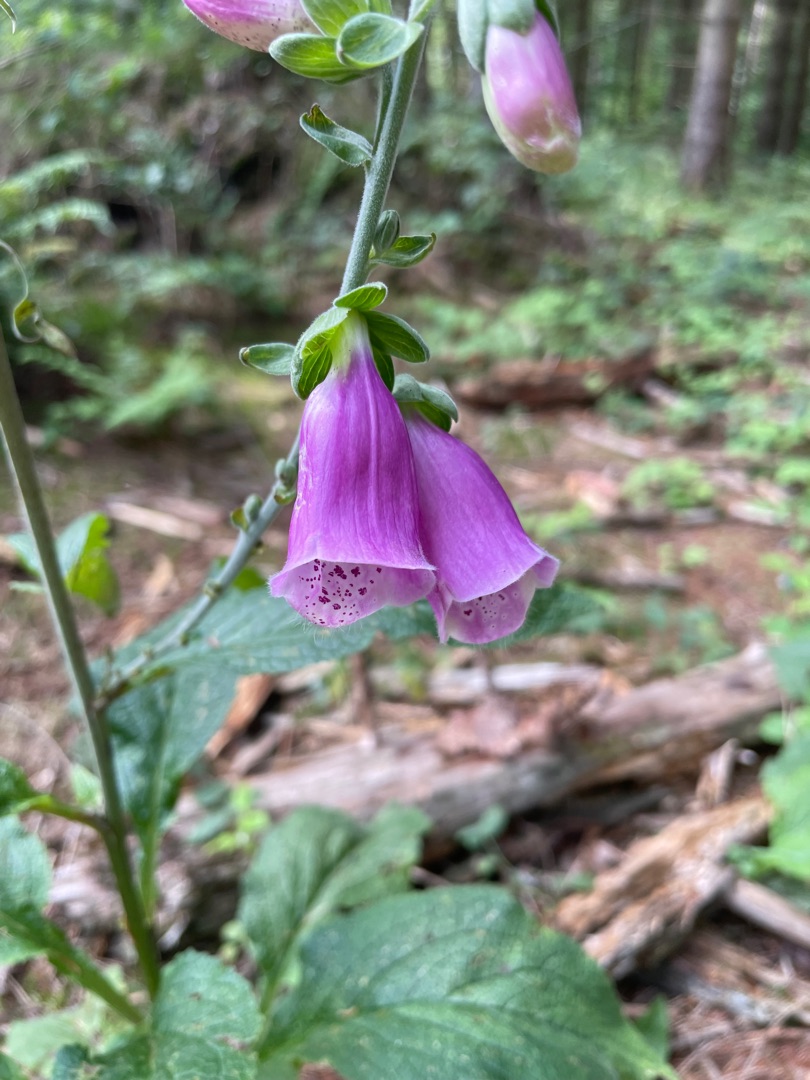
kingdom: Plantae
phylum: Tracheophyta
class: Magnoliopsida
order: Lamiales
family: Plantaginaceae
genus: Digitalis
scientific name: Digitalis purpurea
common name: Almindelig fingerbøl
